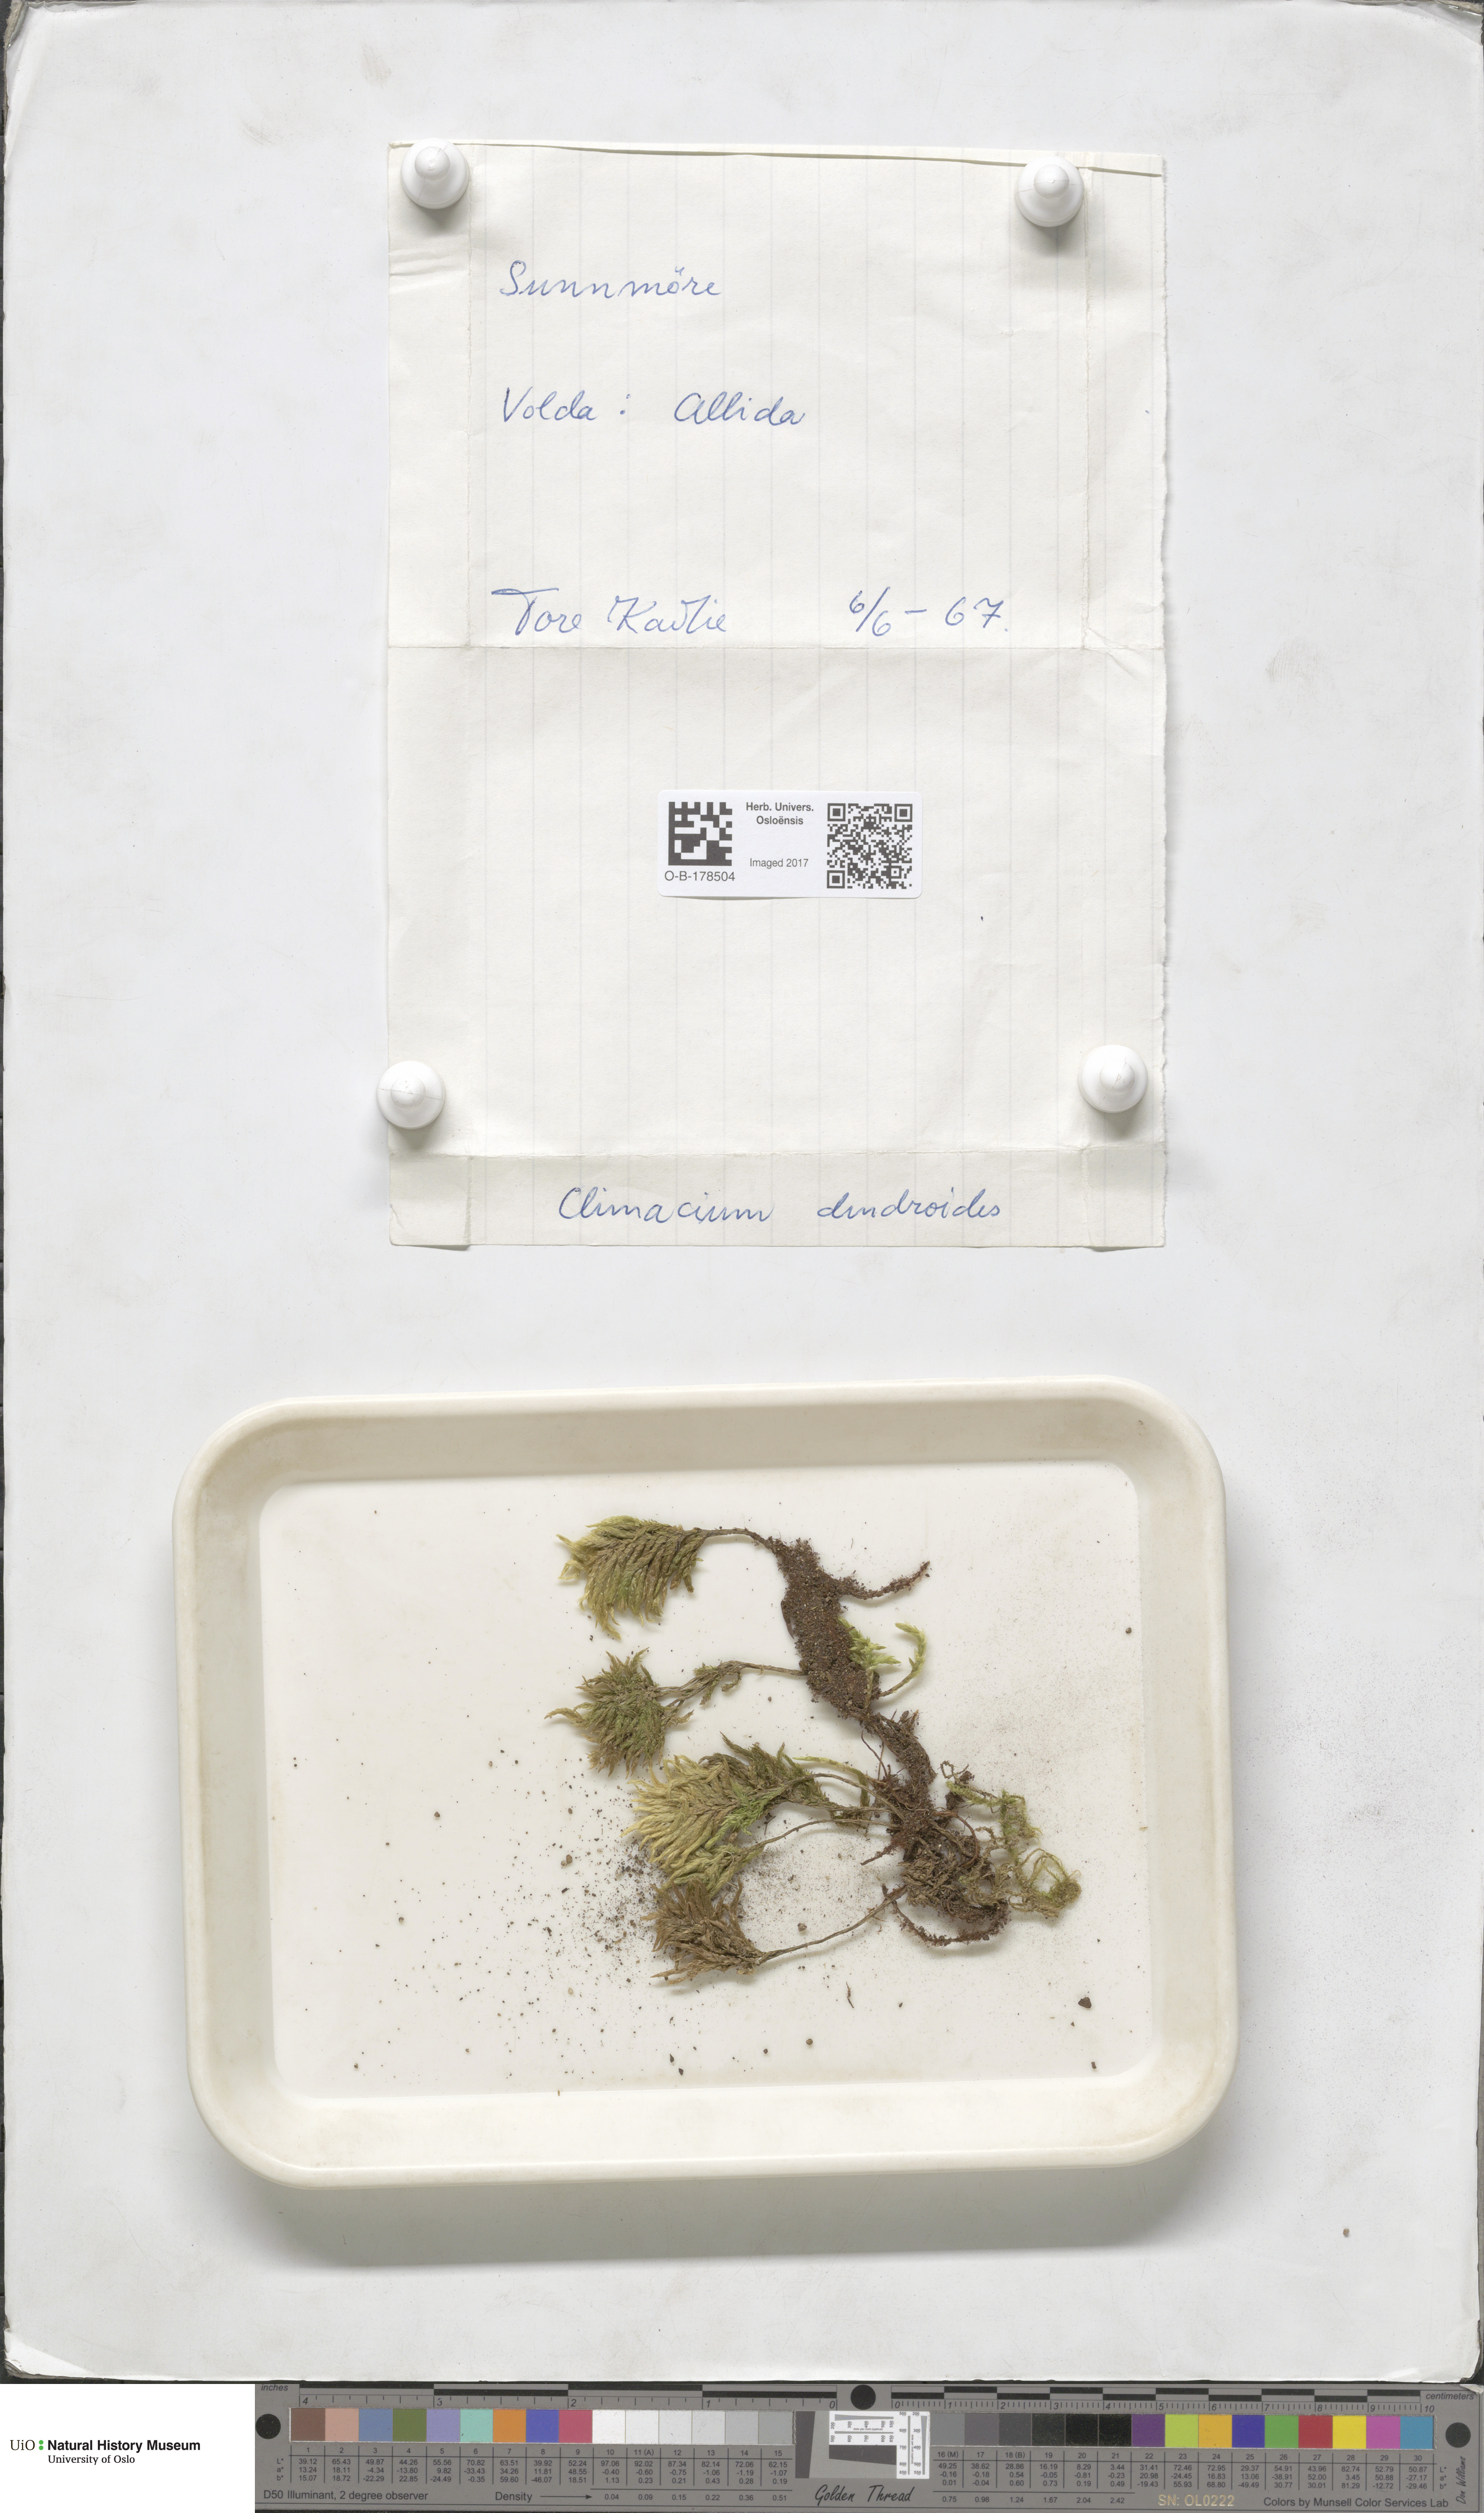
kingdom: Plantae
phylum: Bryophyta
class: Bryopsida
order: Hypnales
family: Climaciaceae
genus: Climacium
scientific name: Climacium dendroides
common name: Northern tree moss
